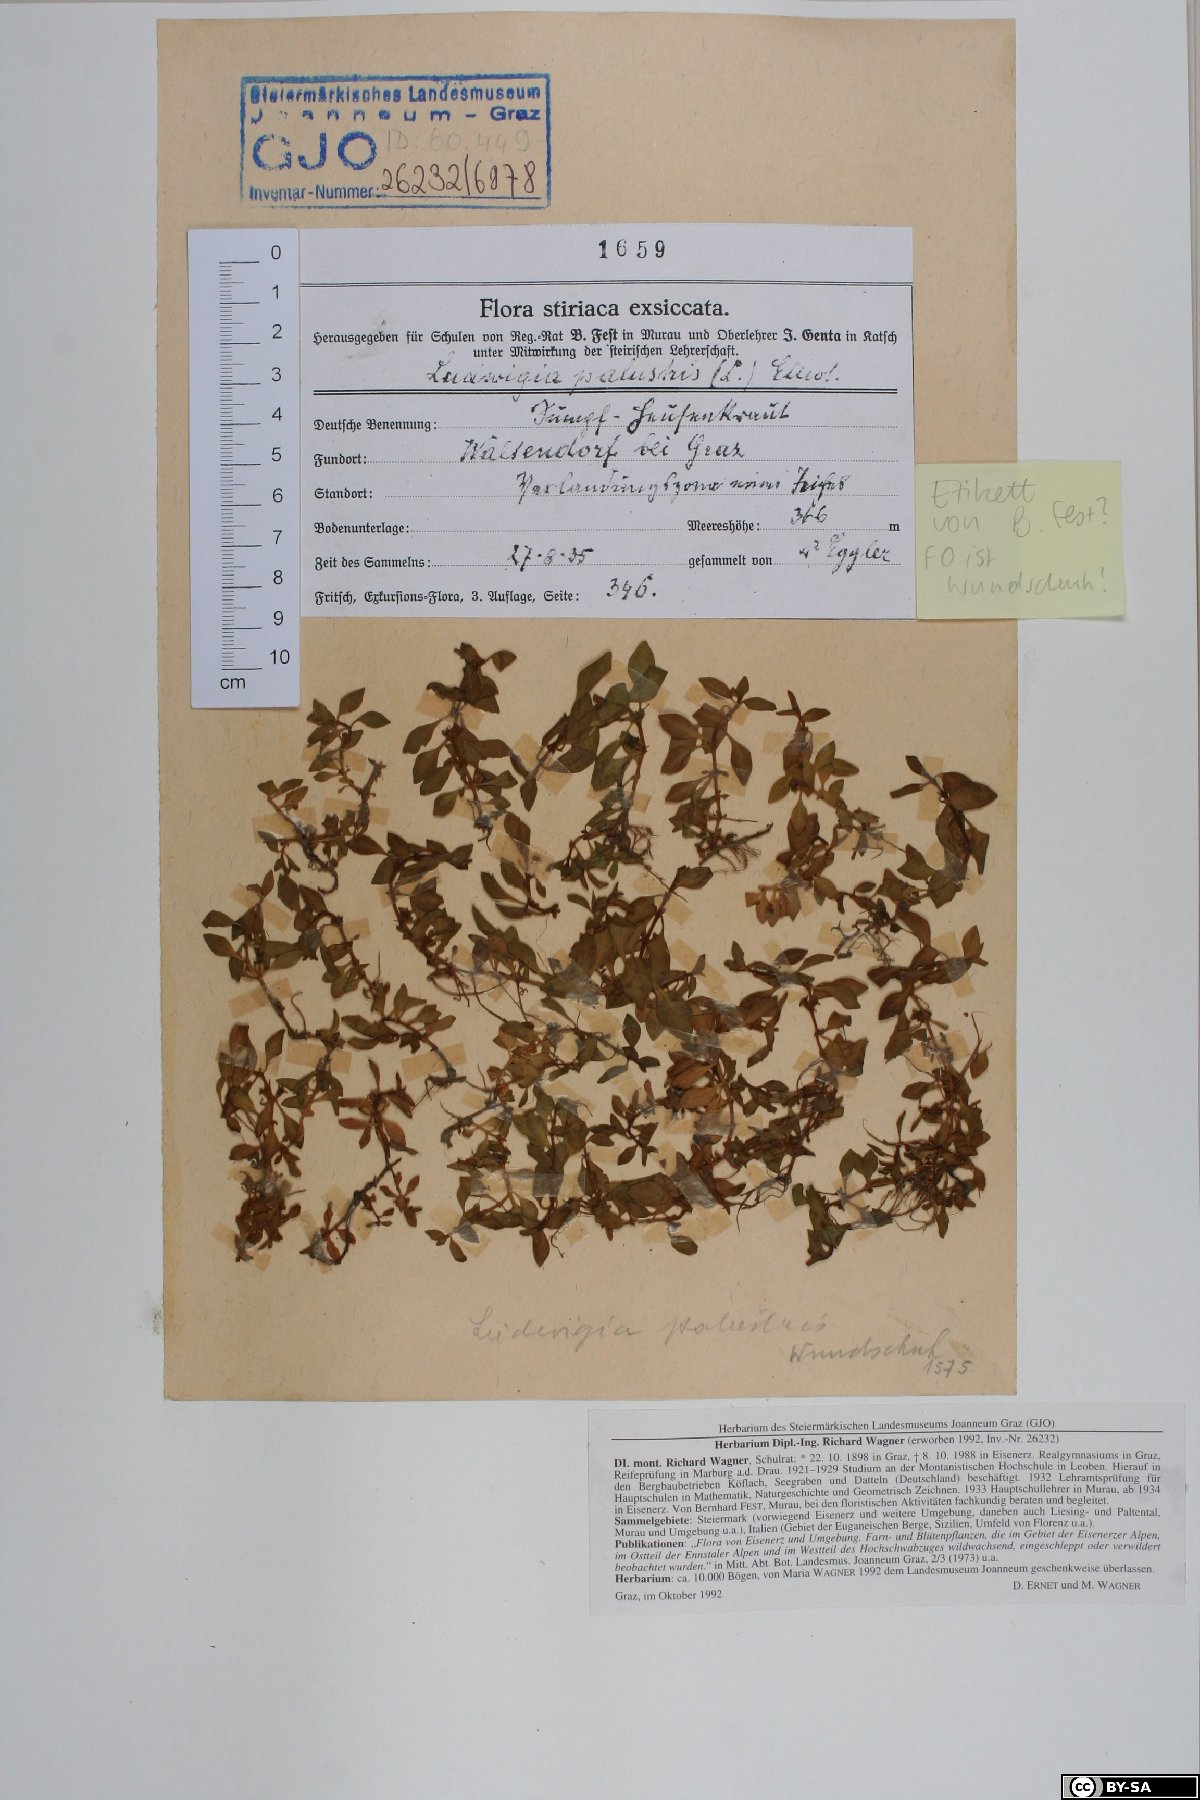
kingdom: Plantae
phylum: Tracheophyta
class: Magnoliopsida
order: Myrtales
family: Onagraceae
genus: Ludwigia
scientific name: Ludwigia palustris
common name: Hampshire-purslane
